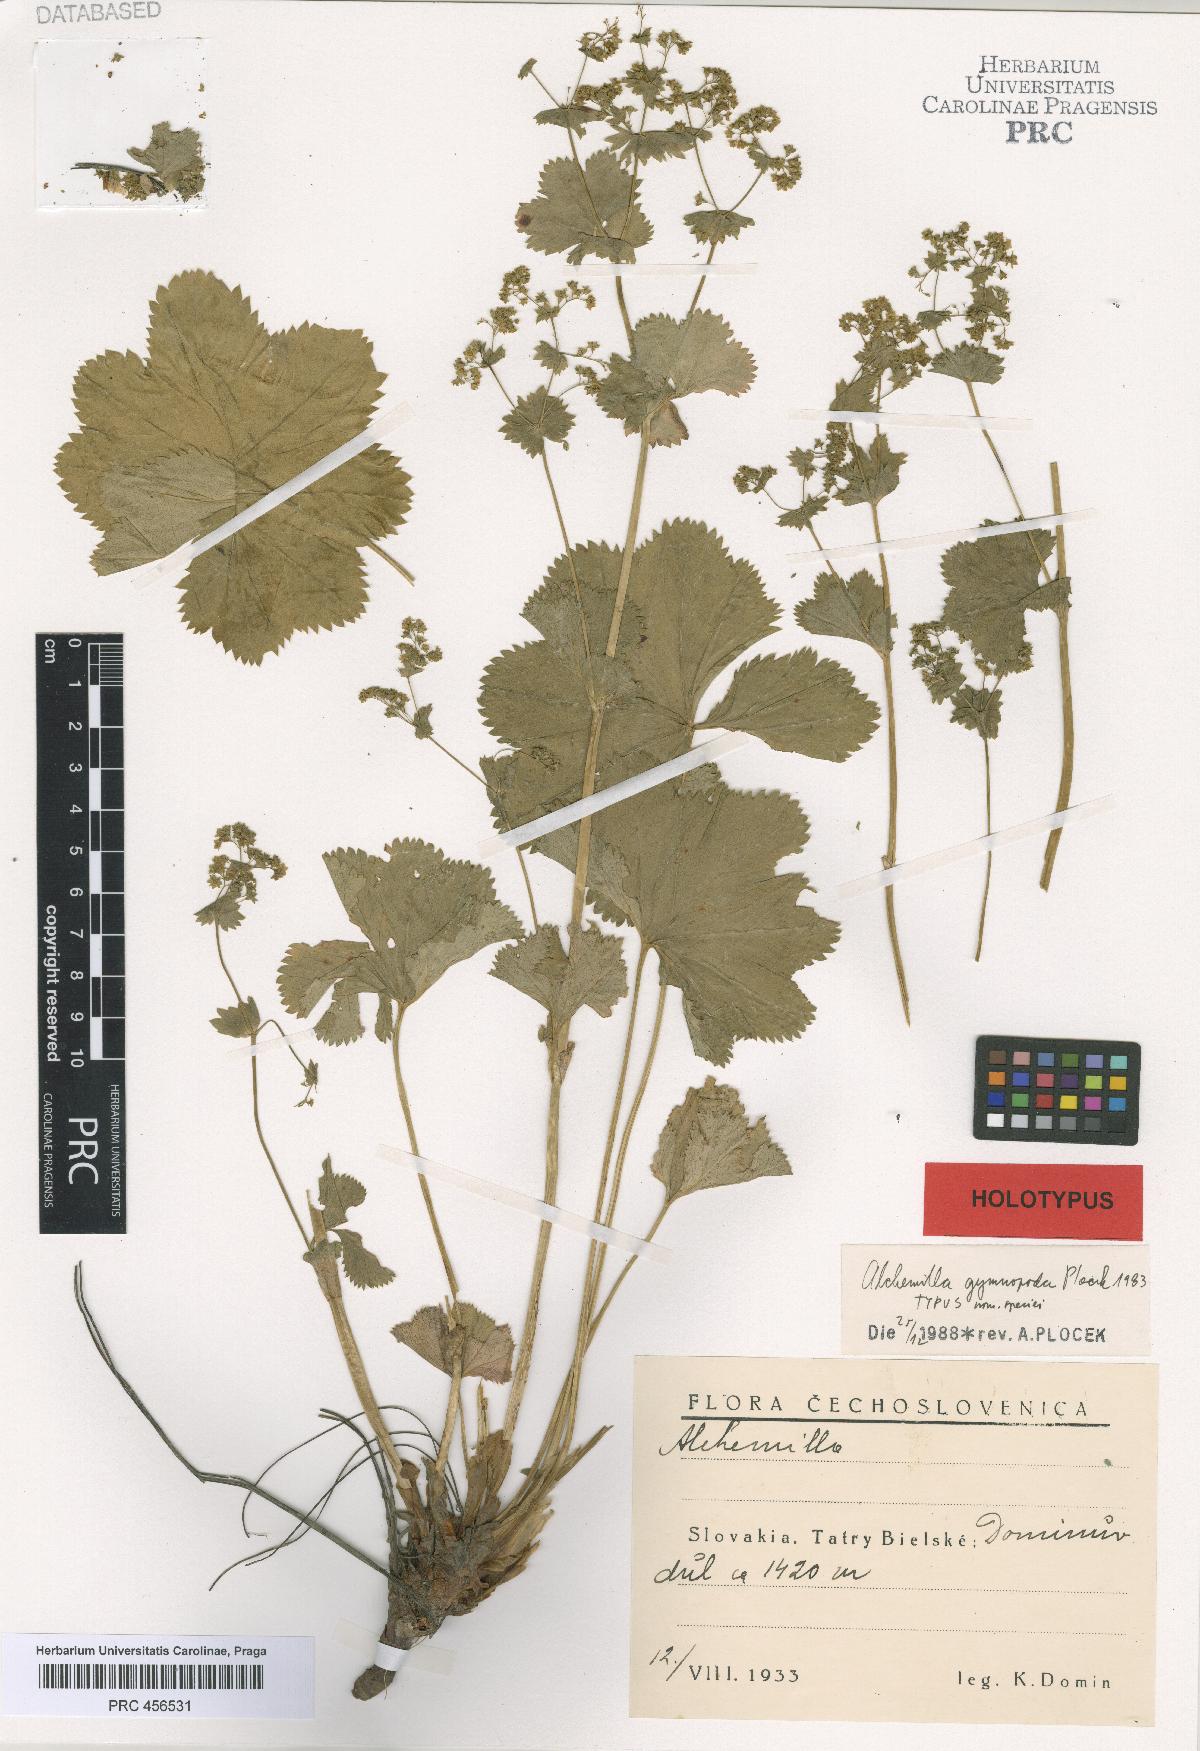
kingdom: Plantae
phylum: Tracheophyta
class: Magnoliopsida
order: Rosales
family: Rosaceae
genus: Alchemilla
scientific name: Alchemilla gymnopoda
